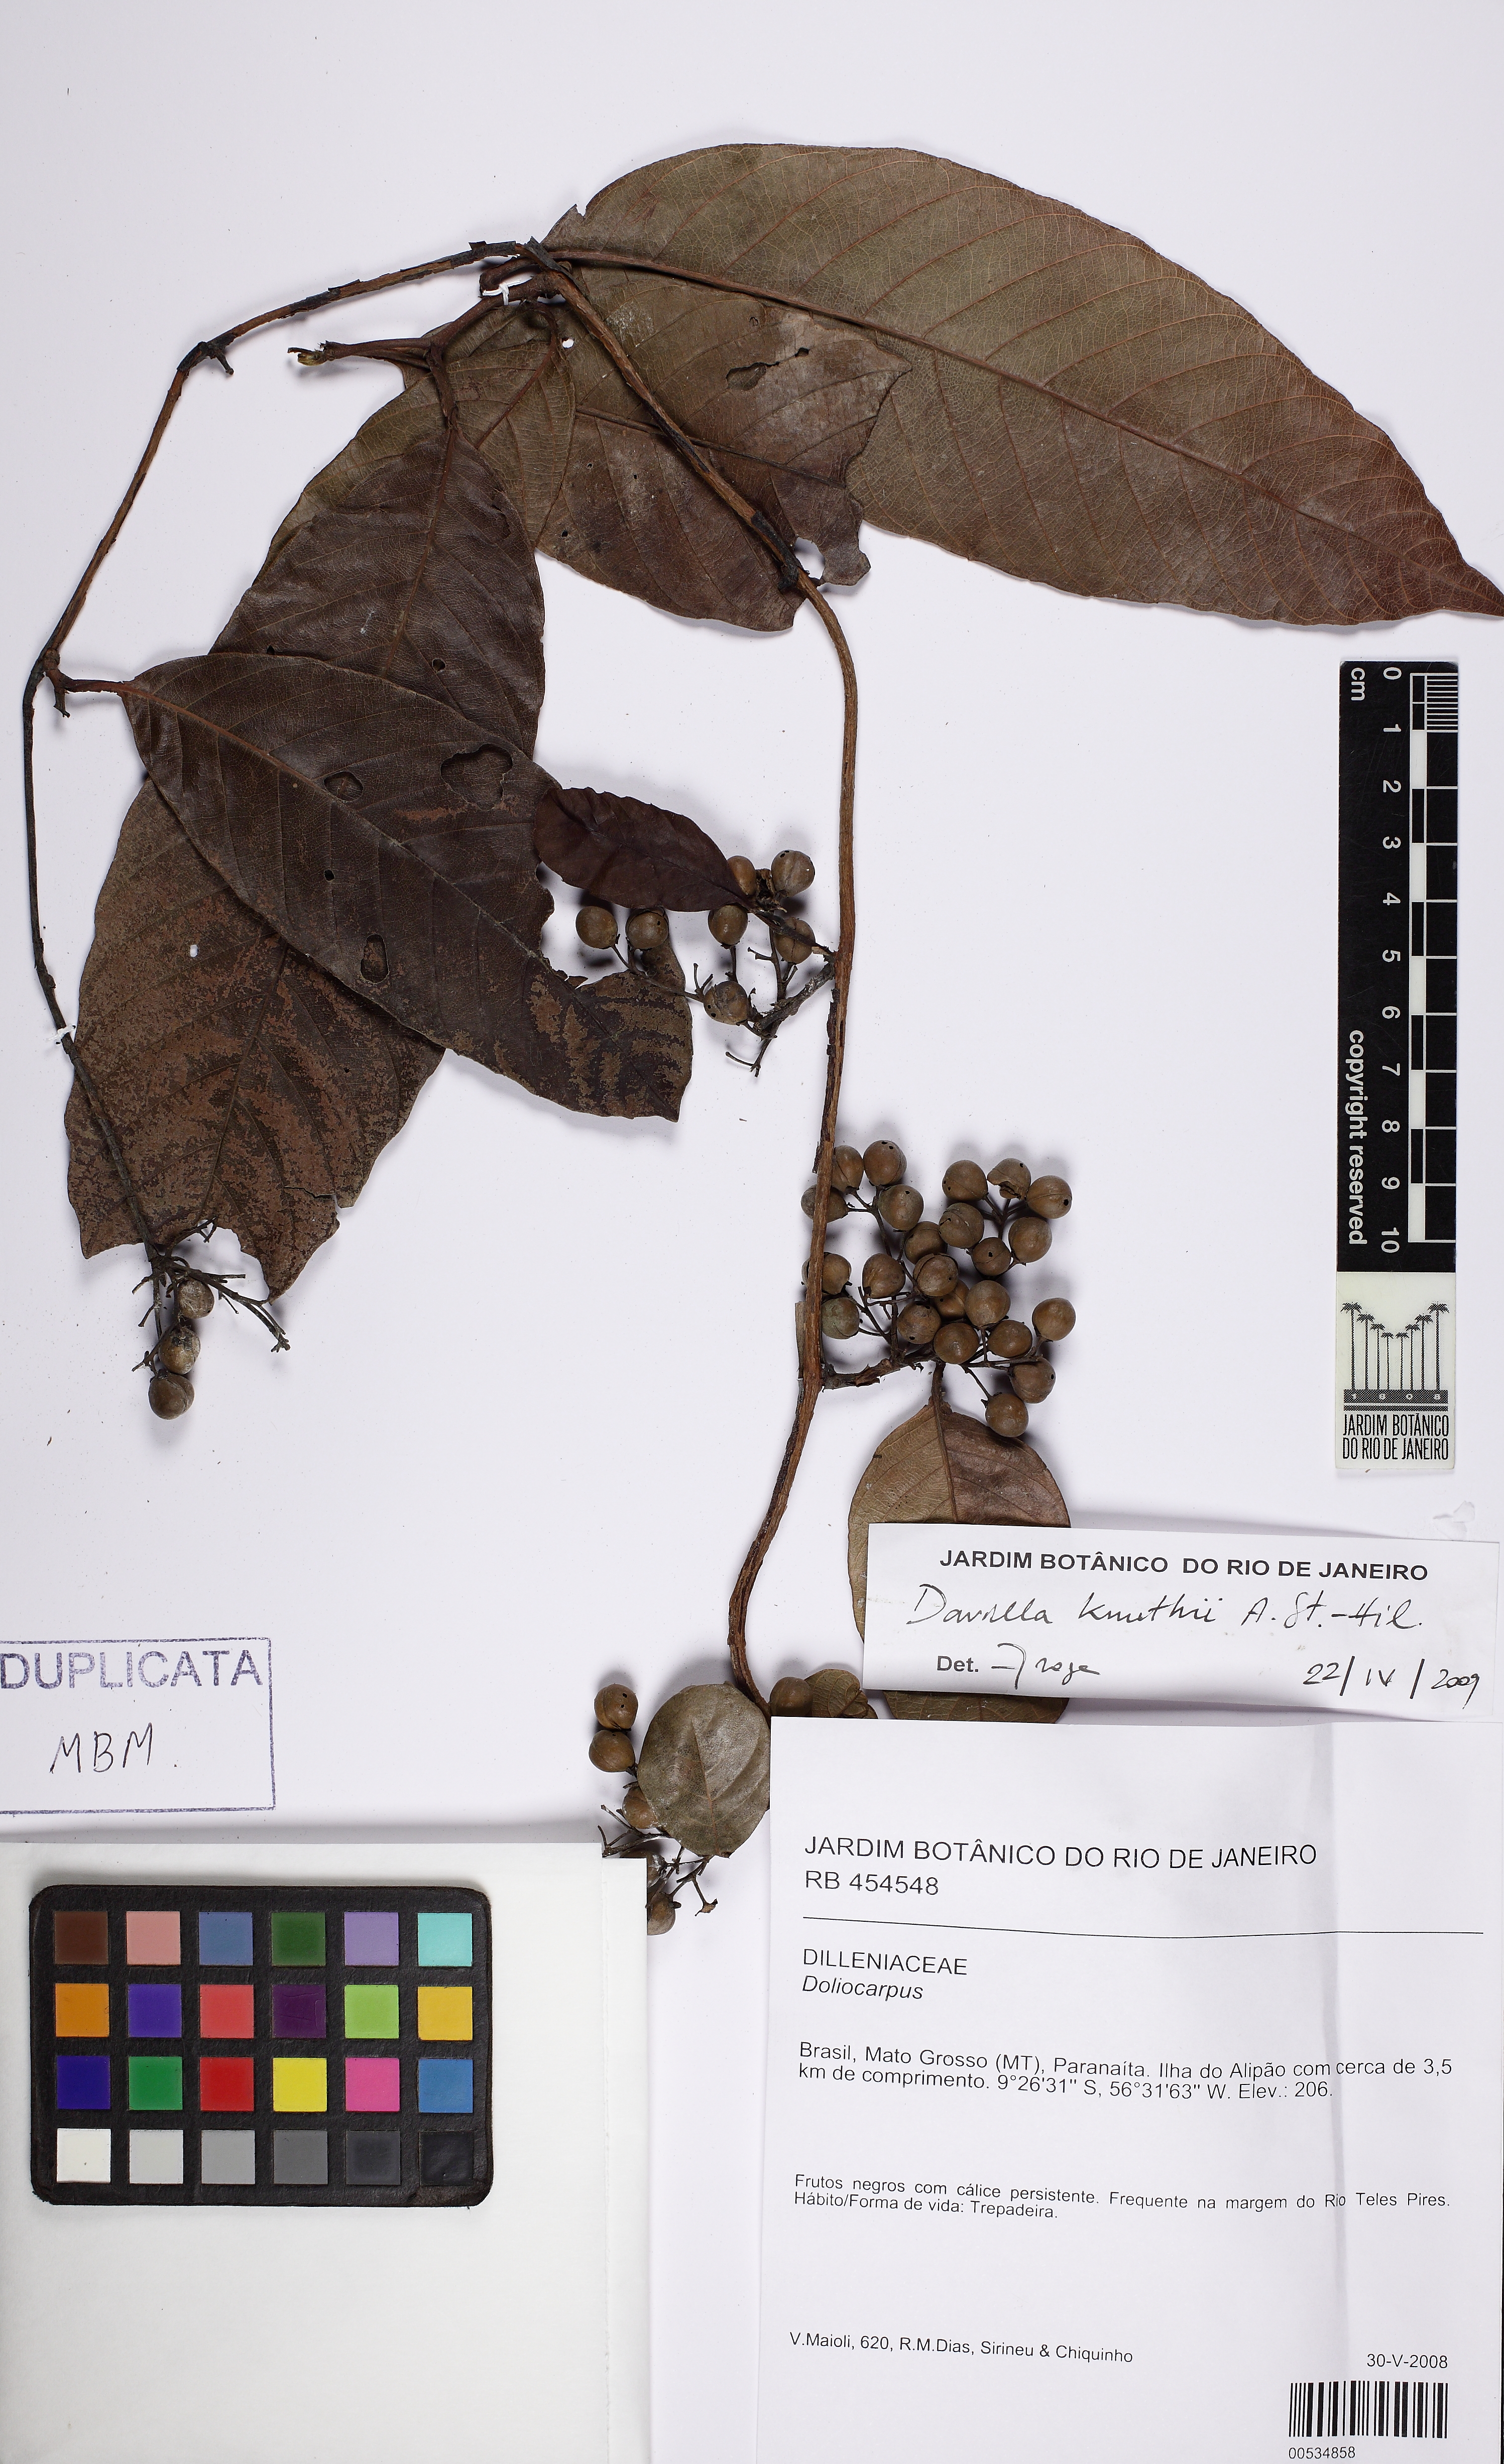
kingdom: Plantae
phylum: Tracheophyta
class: Magnoliopsida
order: Dilleniales
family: Dilleniaceae
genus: Davilla
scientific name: Davilla kunthii
